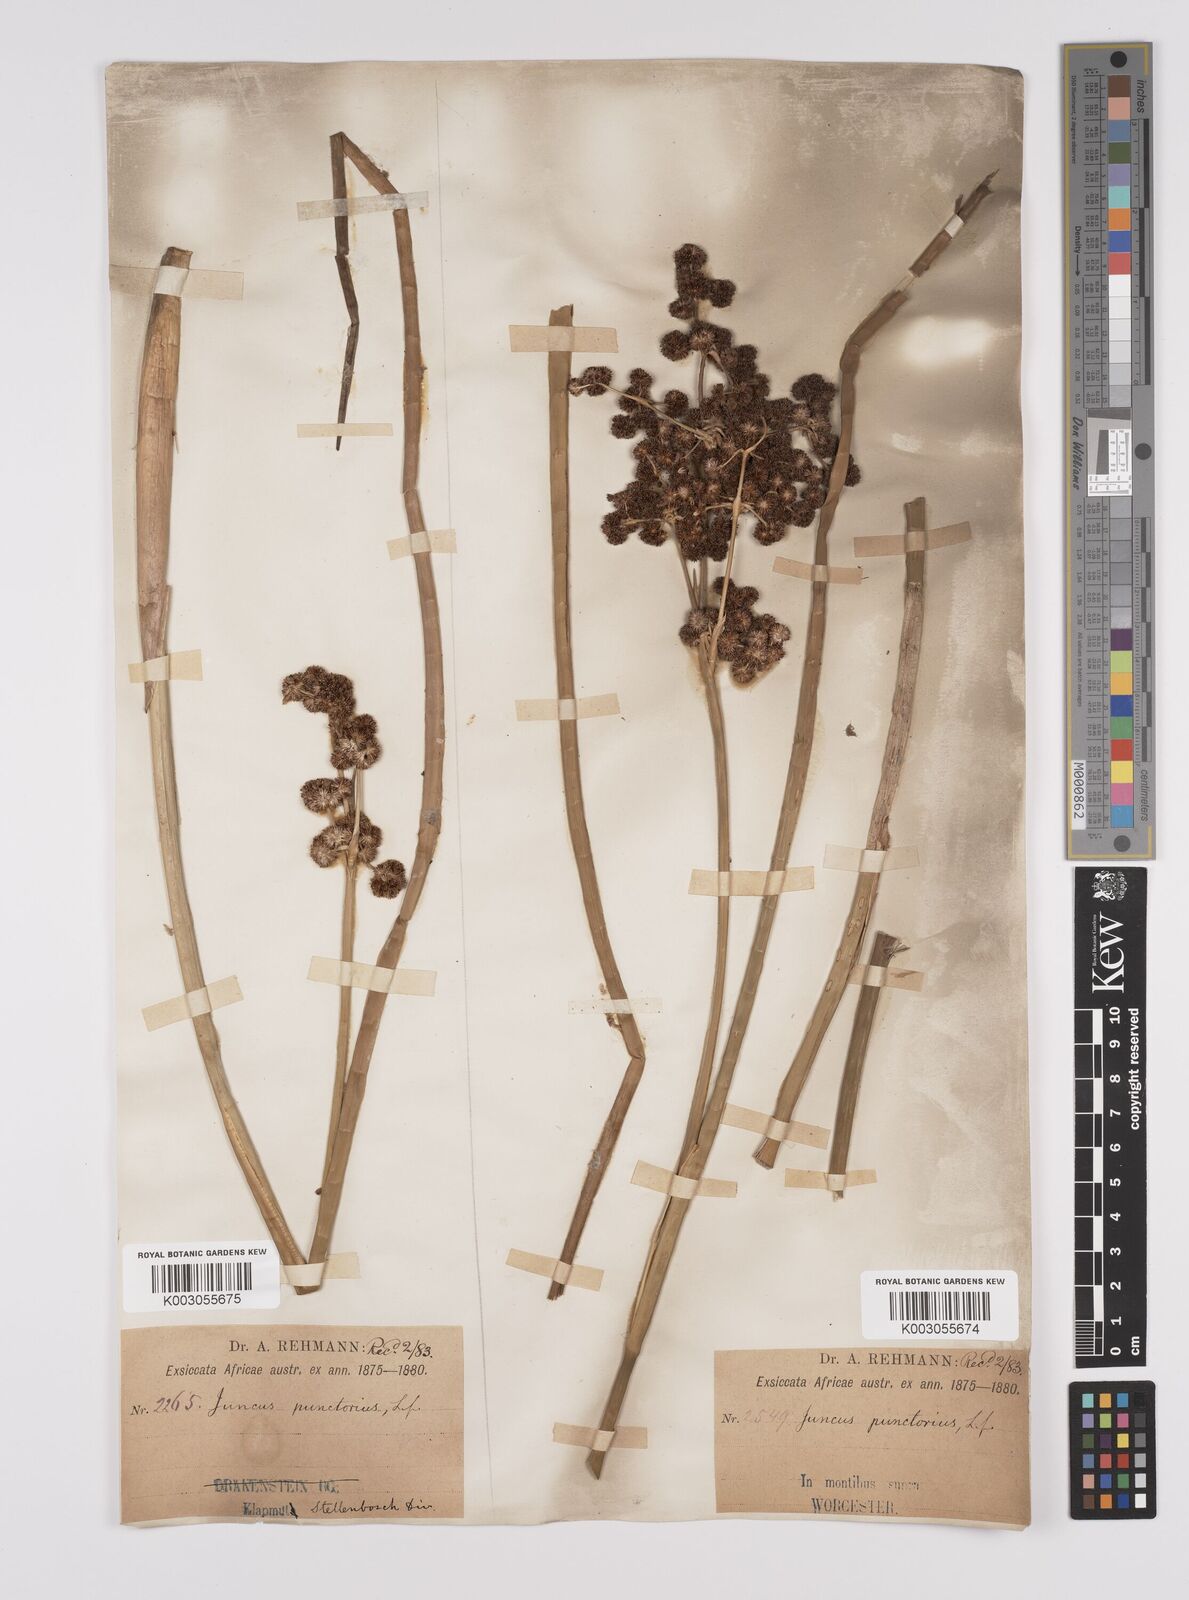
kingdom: Plantae
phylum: Tracheophyta
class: Liliopsida
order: Poales
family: Juncaceae
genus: Juncus
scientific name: Juncus punctorius
